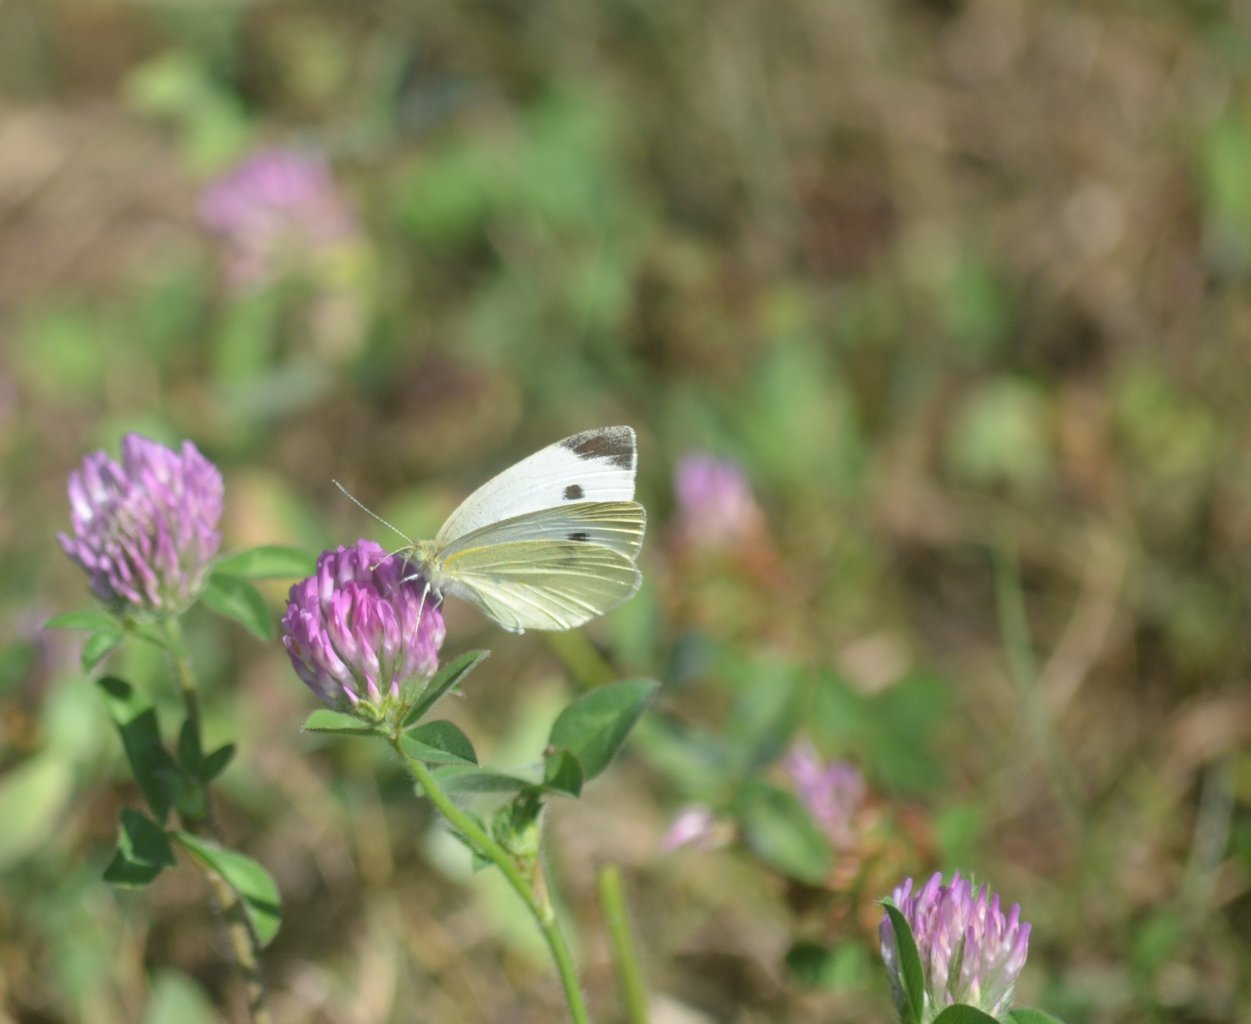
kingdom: Animalia
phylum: Arthropoda
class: Insecta
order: Lepidoptera
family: Pieridae
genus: Pieris
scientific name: Pieris rapae
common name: Cabbage White
